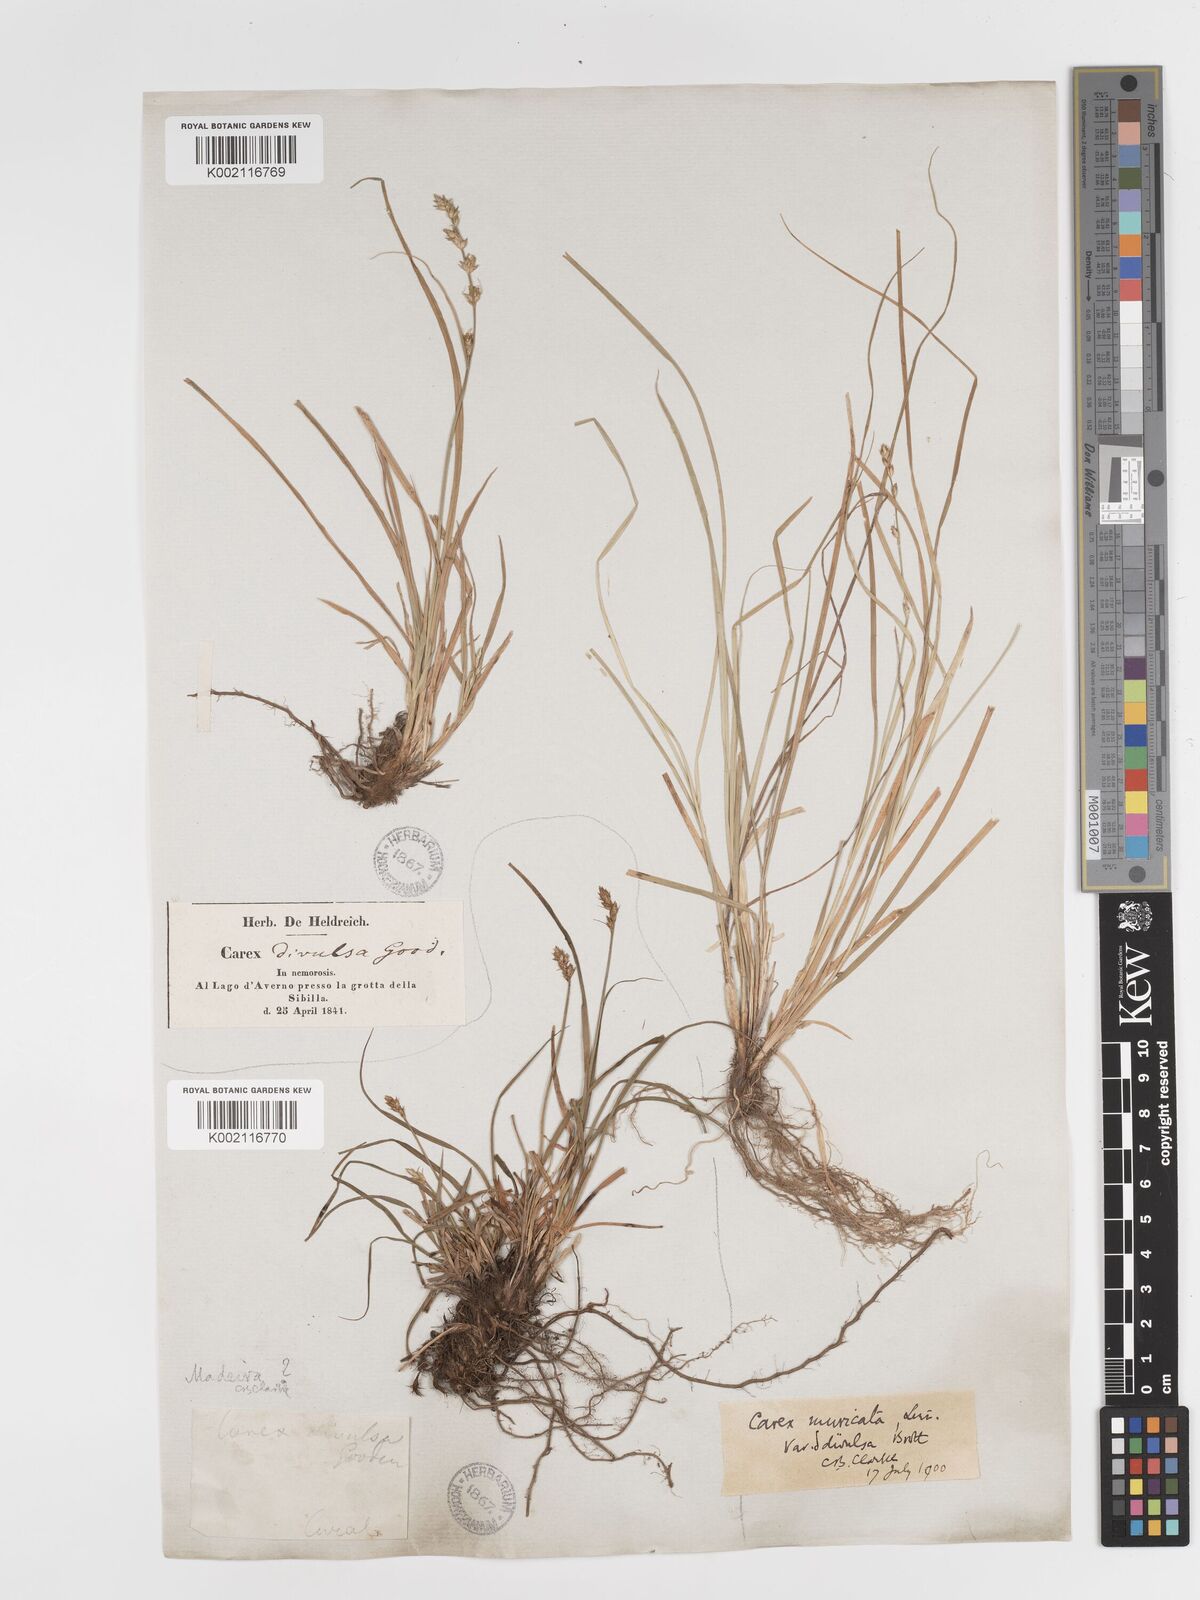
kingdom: Plantae
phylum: Tracheophyta
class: Liliopsida
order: Poales
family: Cyperaceae
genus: Carex
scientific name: Carex divulsa
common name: Grassland sedge
